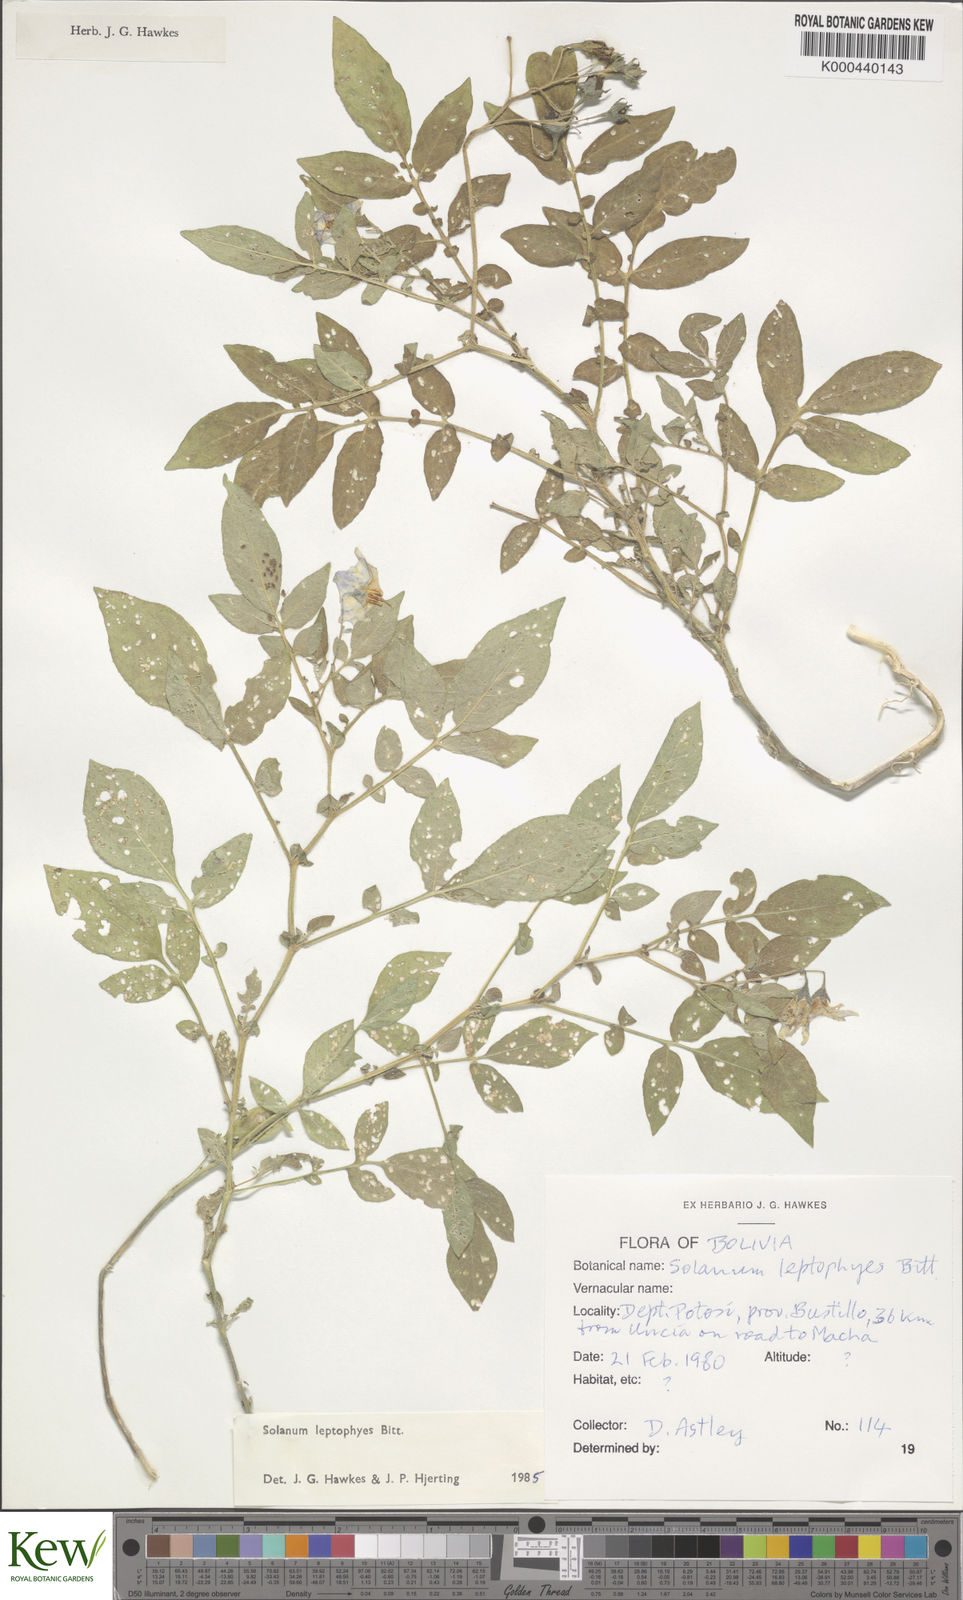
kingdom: Plantae
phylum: Tracheophyta
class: Magnoliopsida
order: Solanales
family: Solanaceae
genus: Solanum
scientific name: Solanum brevicaule
